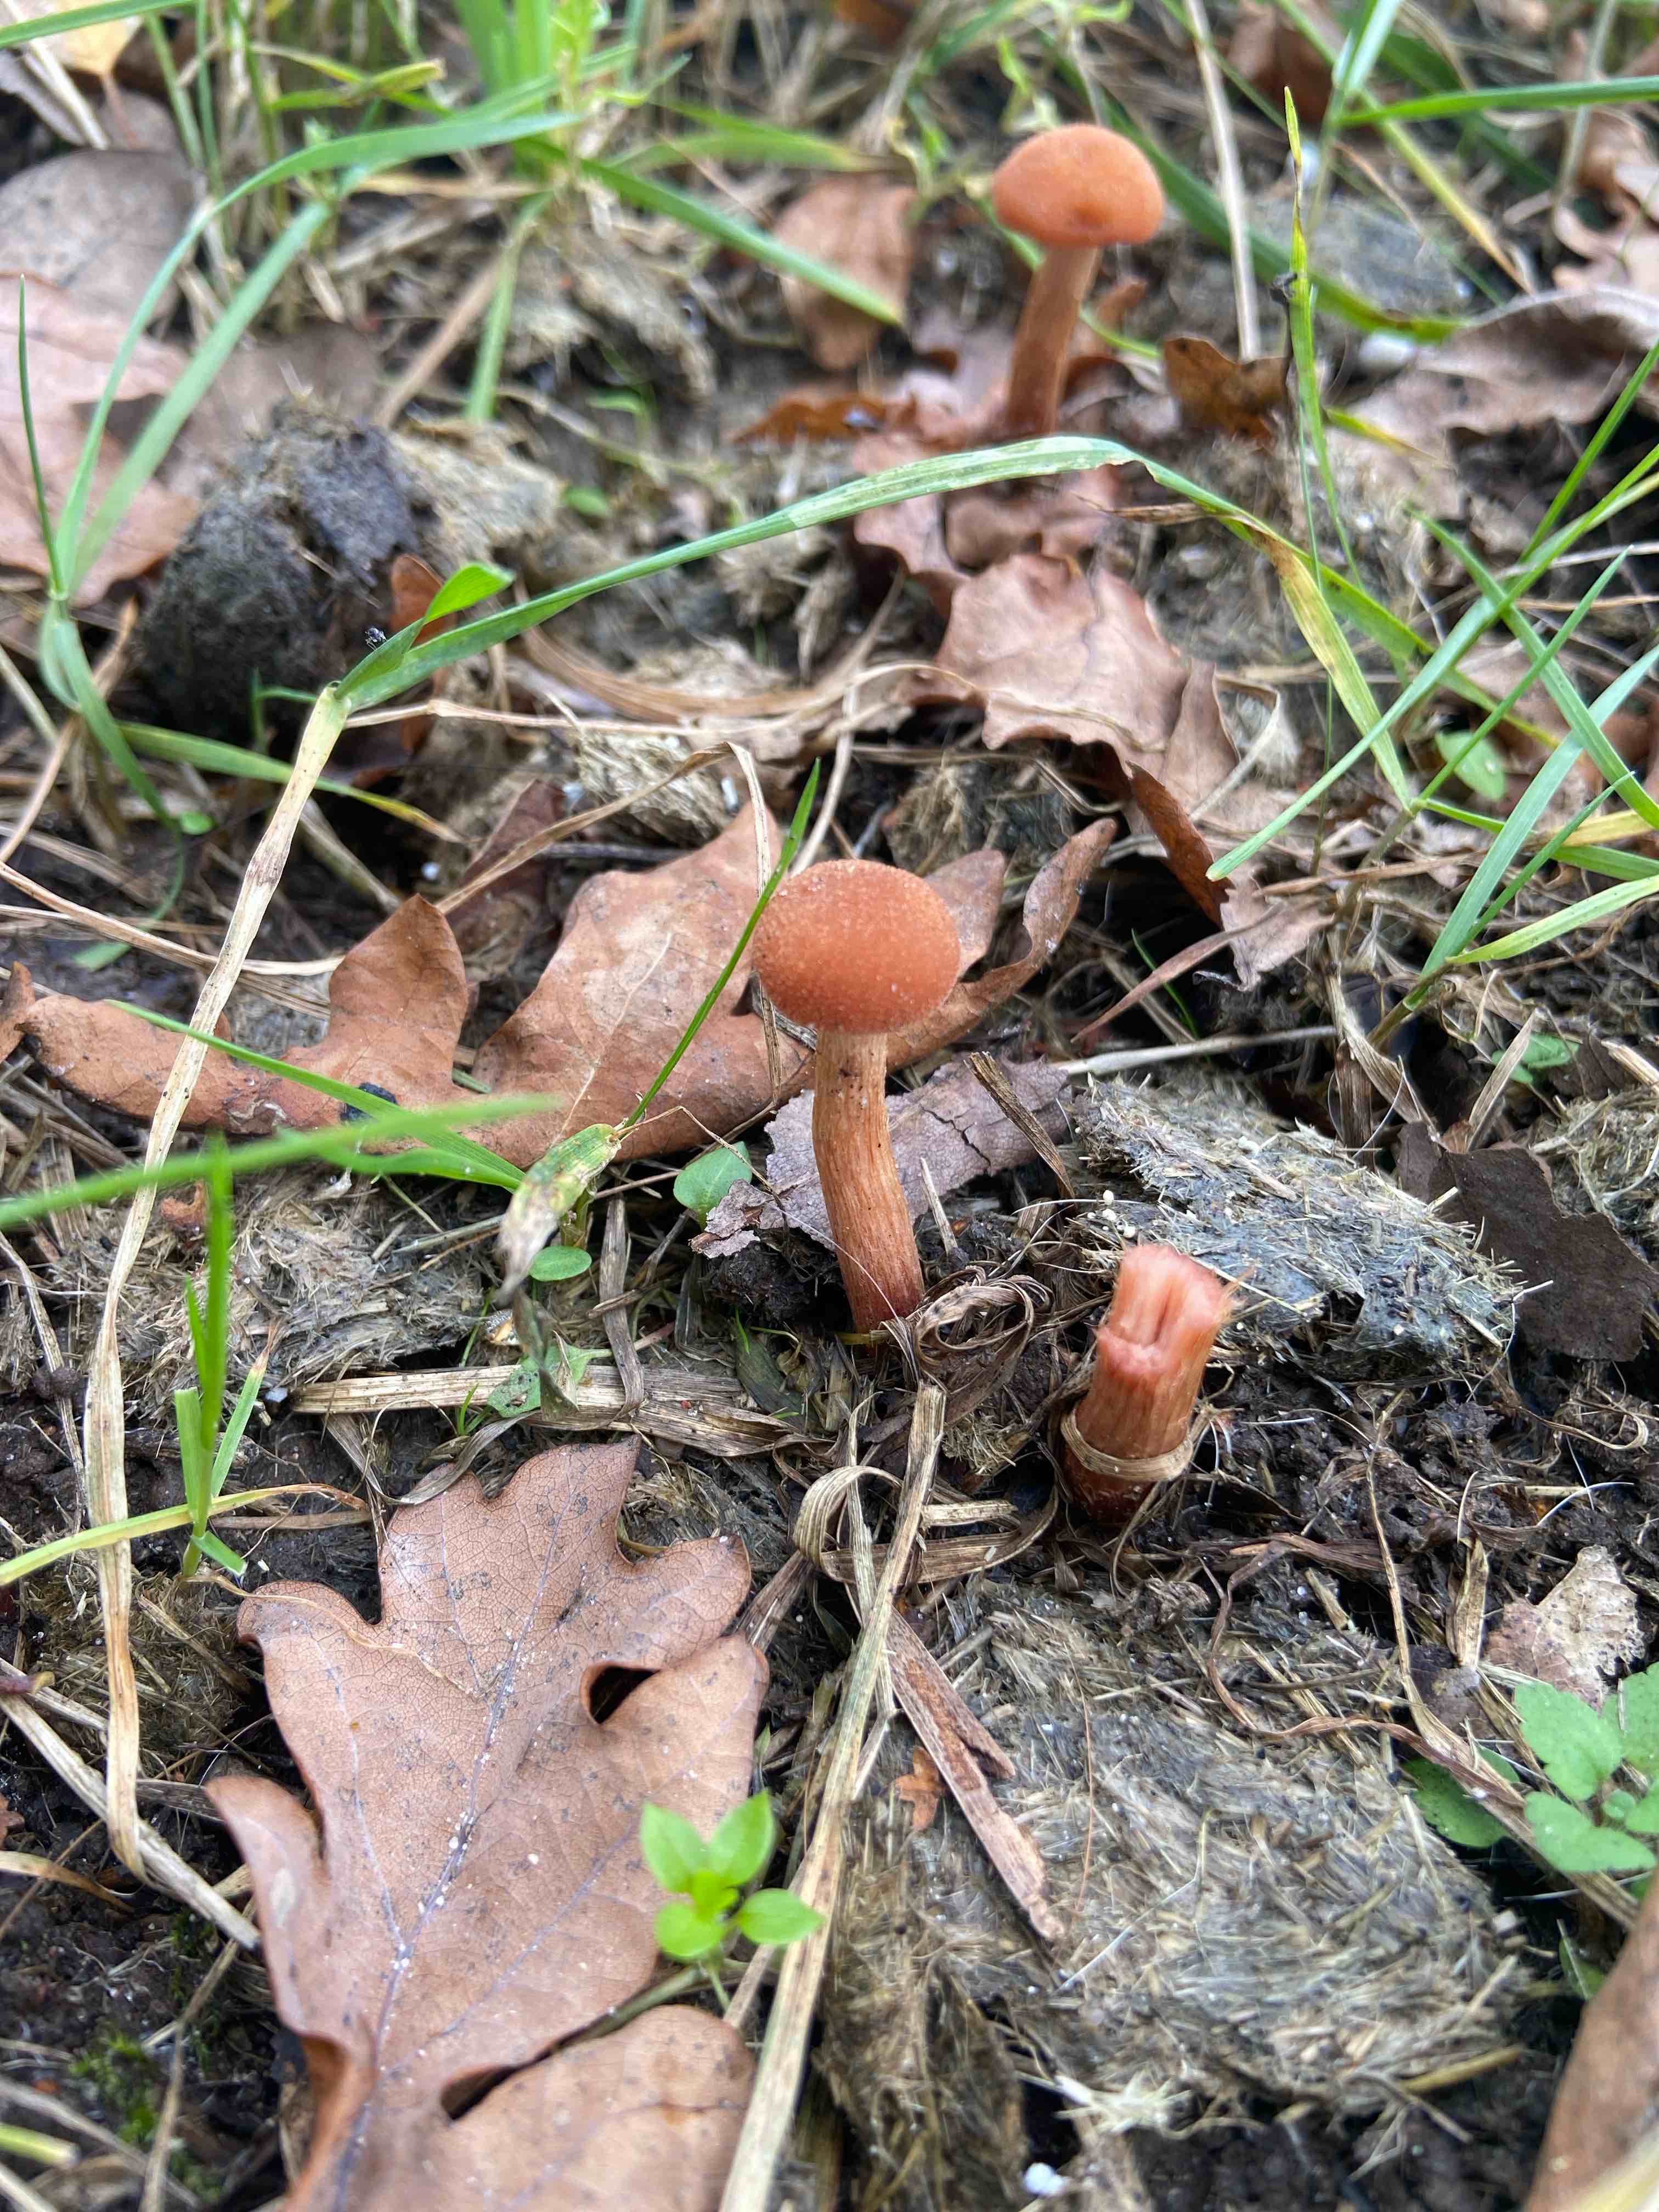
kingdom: Fungi
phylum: Basidiomycota
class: Agaricomycetes
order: Agaricales
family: Hydnangiaceae
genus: Laccaria
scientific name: Laccaria laccata
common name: rød ametysthat
